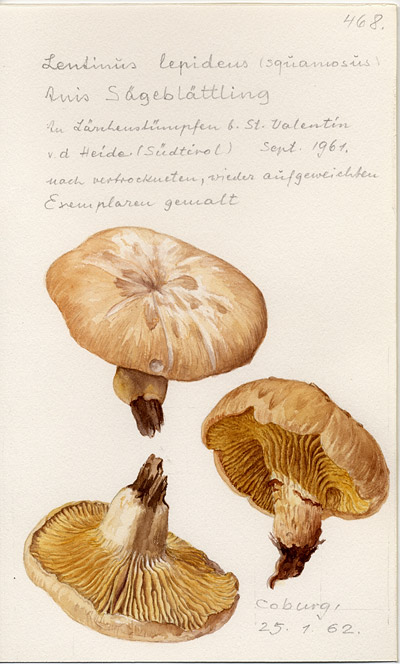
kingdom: Fungi
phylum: Basidiomycota
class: Agaricomycetes
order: Gloeophyllales
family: Gloeophyllaceae
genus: Neolentinus
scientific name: Neolentinus lepideus
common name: Scaly sawgill
